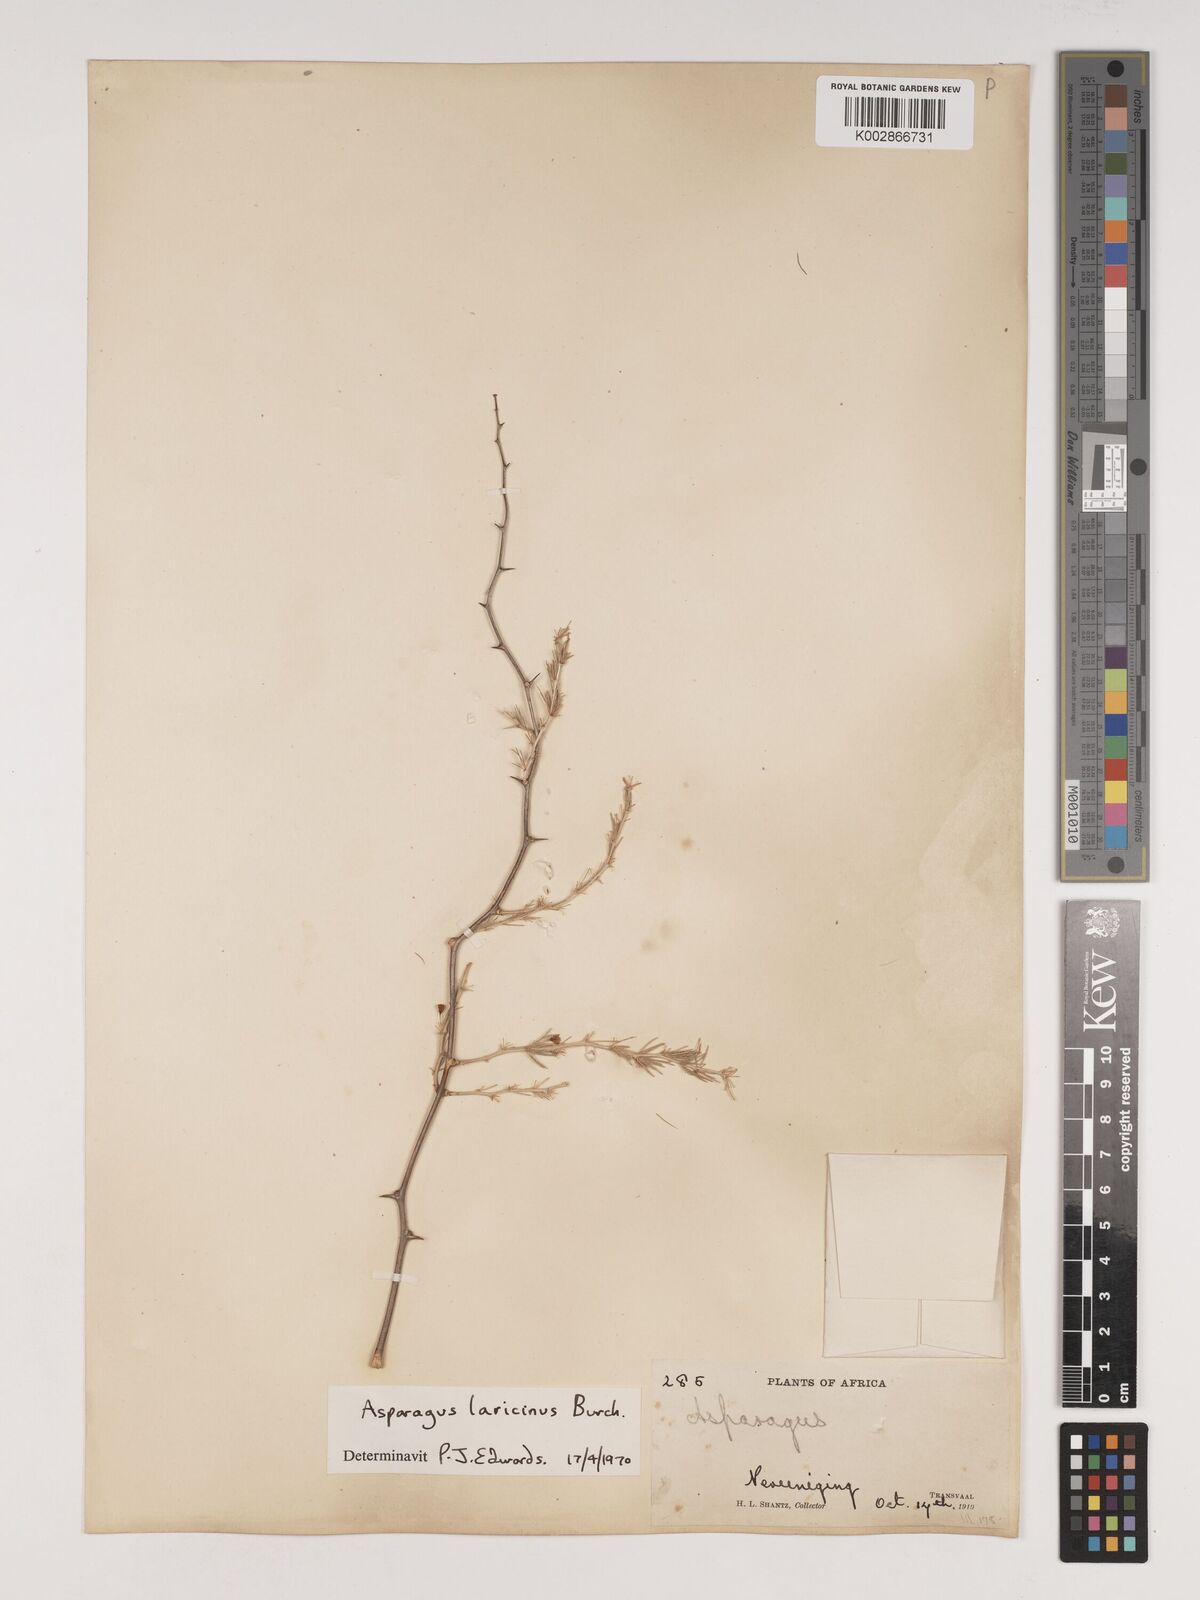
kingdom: Plantae
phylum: Tracheophyta
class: Liliopsida
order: Asparagales
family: Asparagaceae
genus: Asparagus
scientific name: Asparagus laricinus
